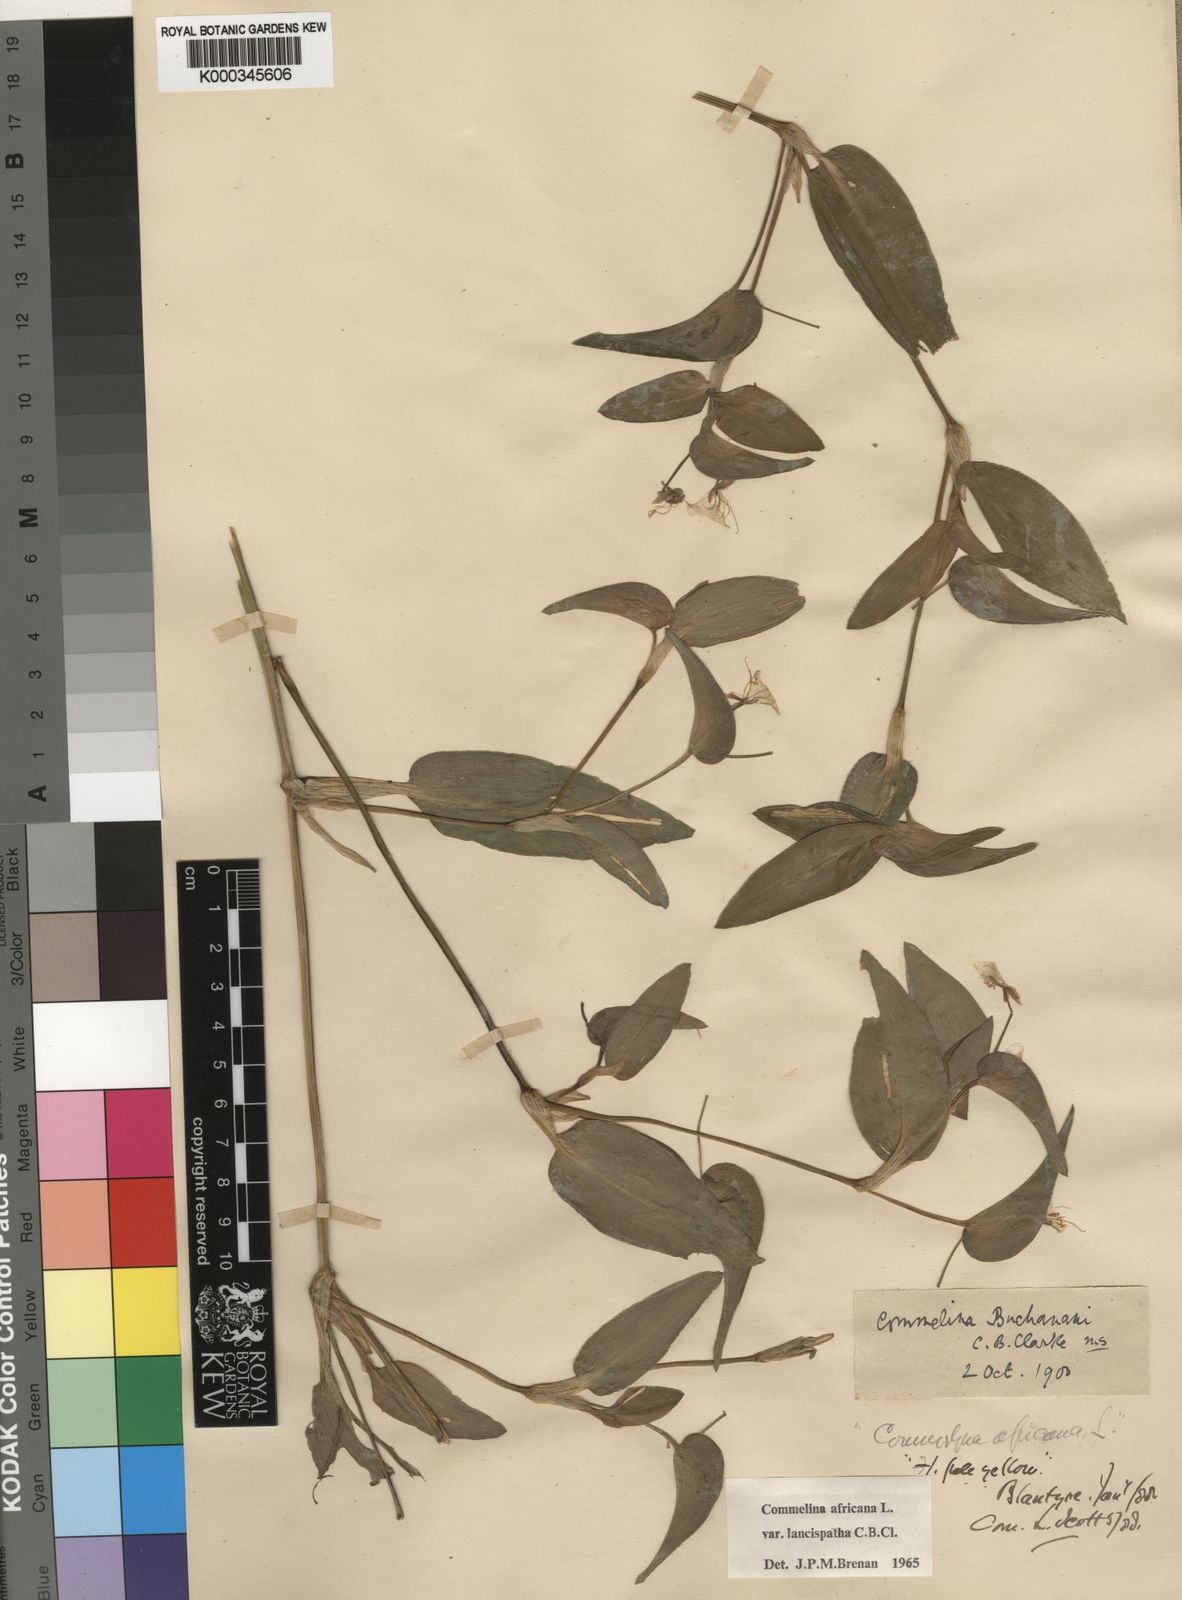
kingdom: Plantae
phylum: Tracheophyta
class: Liliopsida
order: Commelinales
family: Commelinaceae
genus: Commelina
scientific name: Commelina africana
